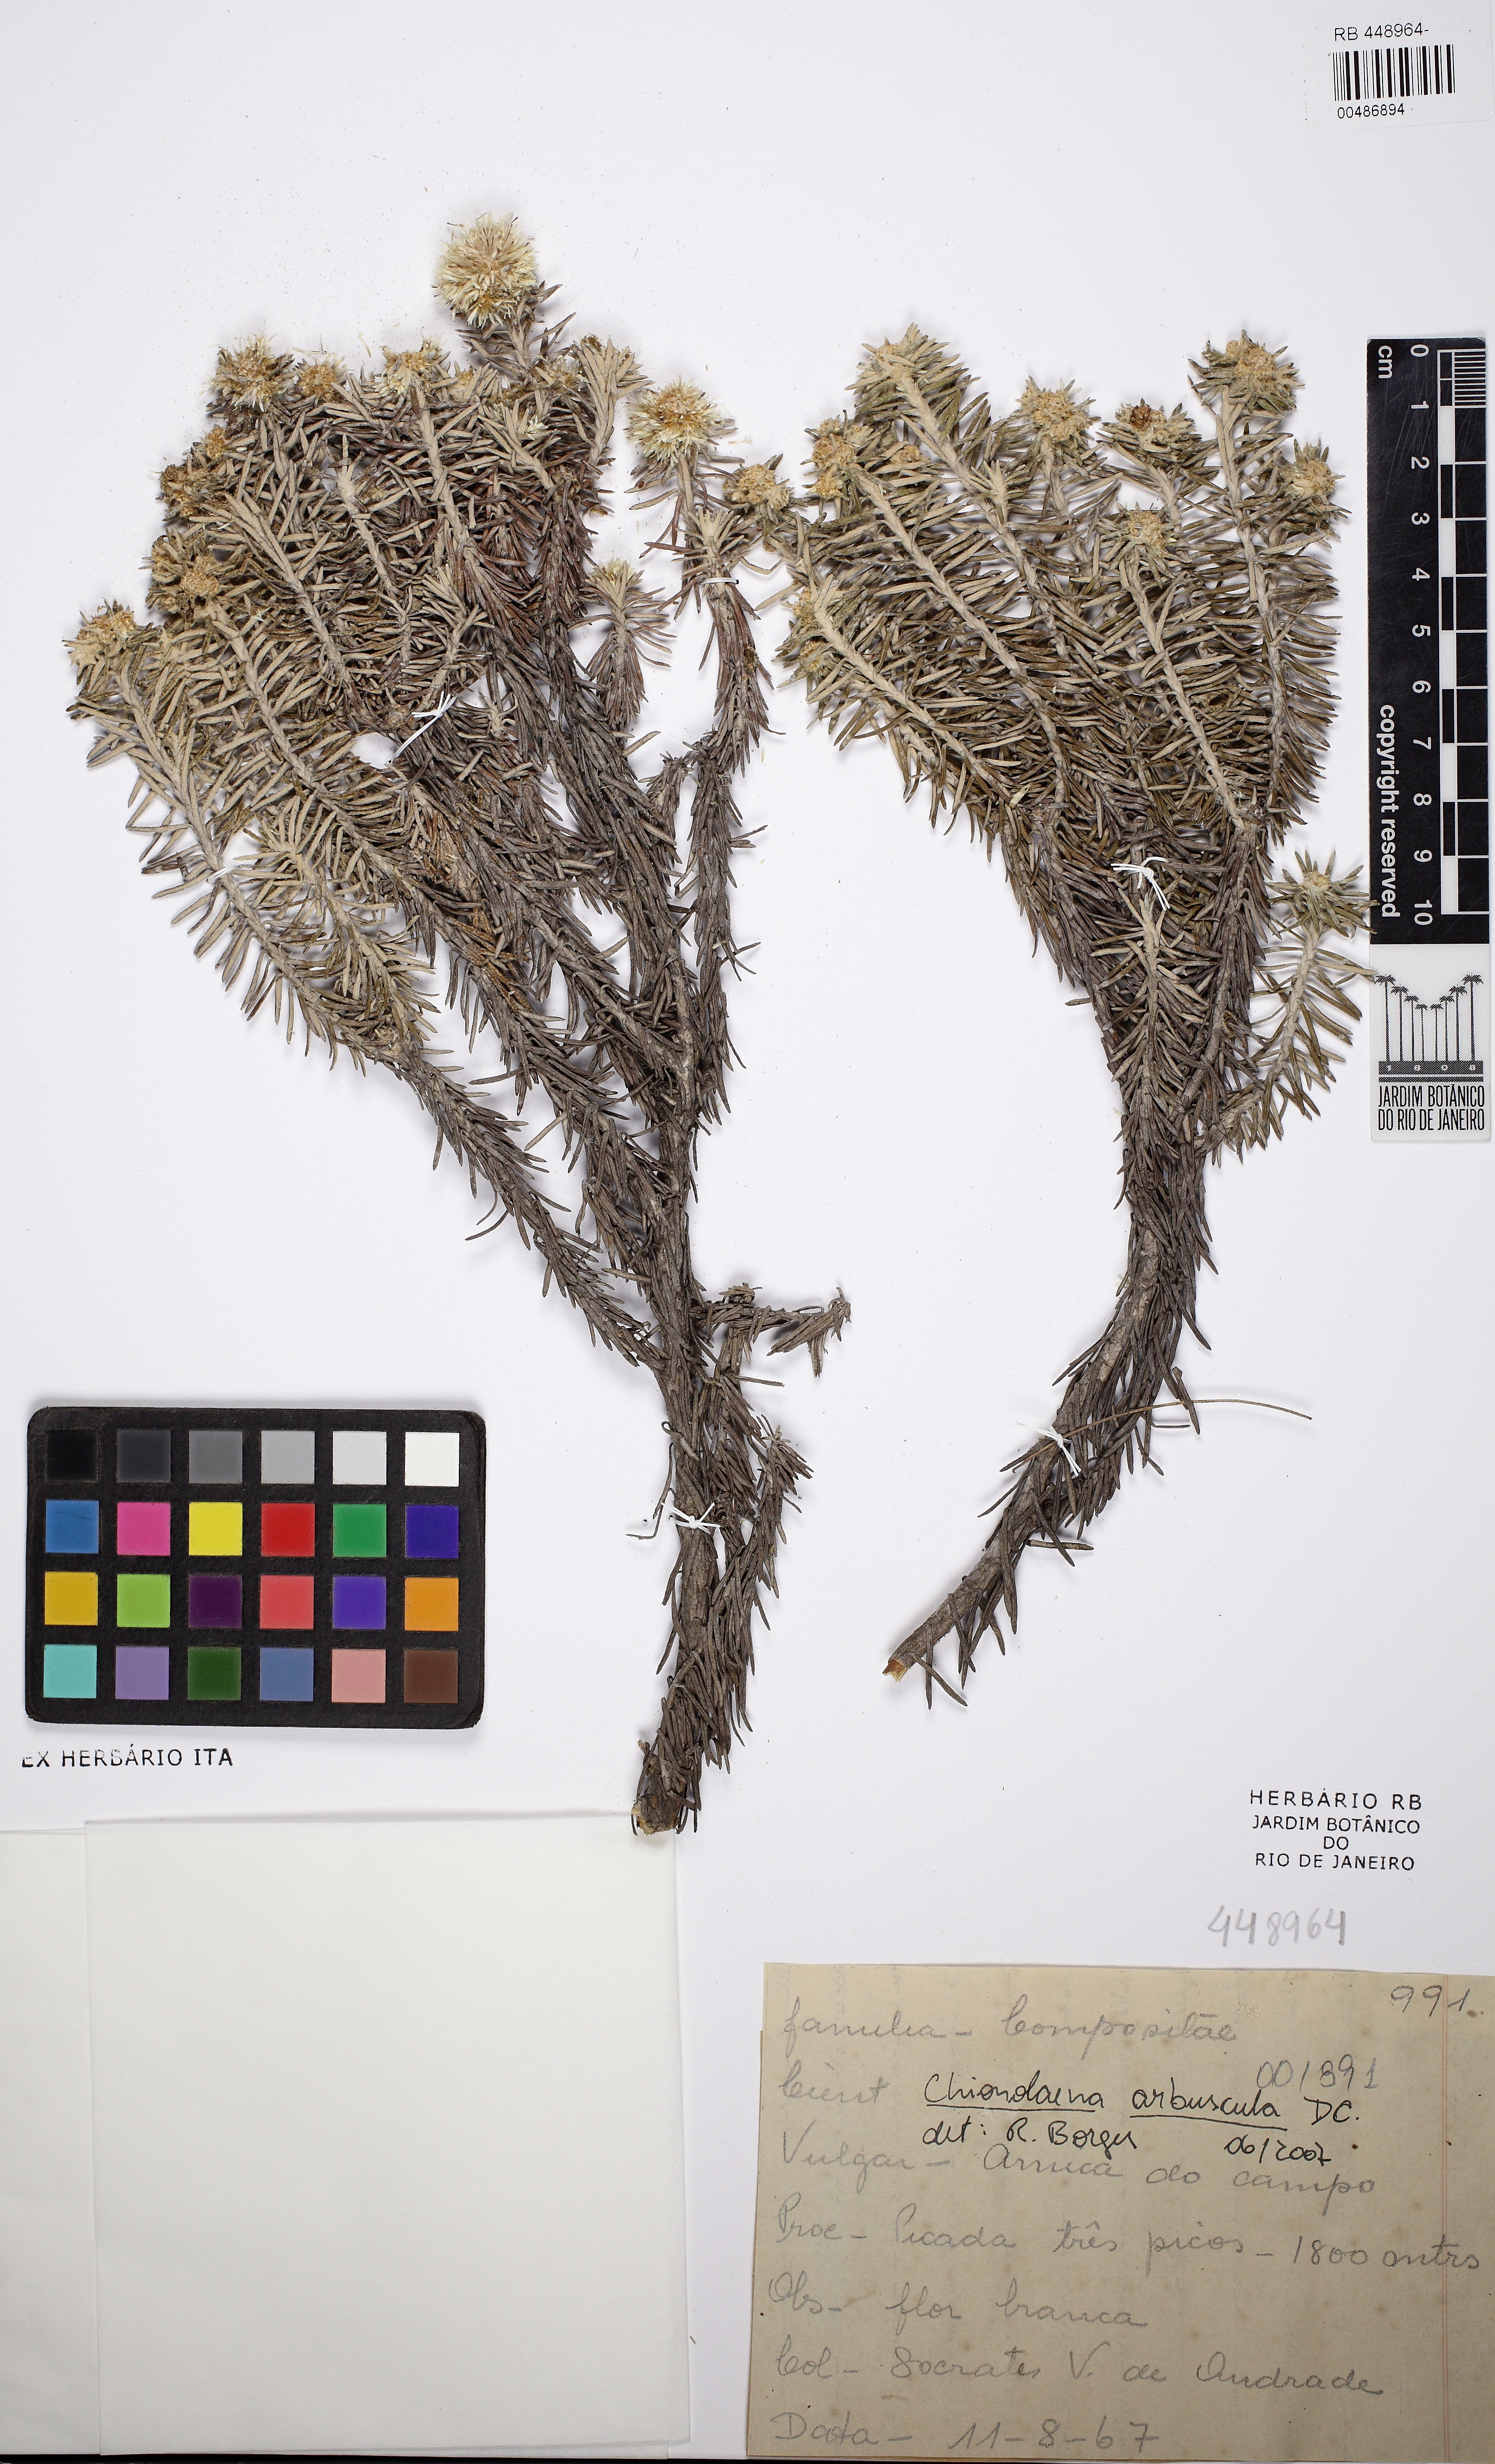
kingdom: Plantae
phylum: Tracheophyta
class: Magnoliopsida
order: Asterales
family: Asteraceae
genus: Chionolaena
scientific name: Chionolaena arbuscula
